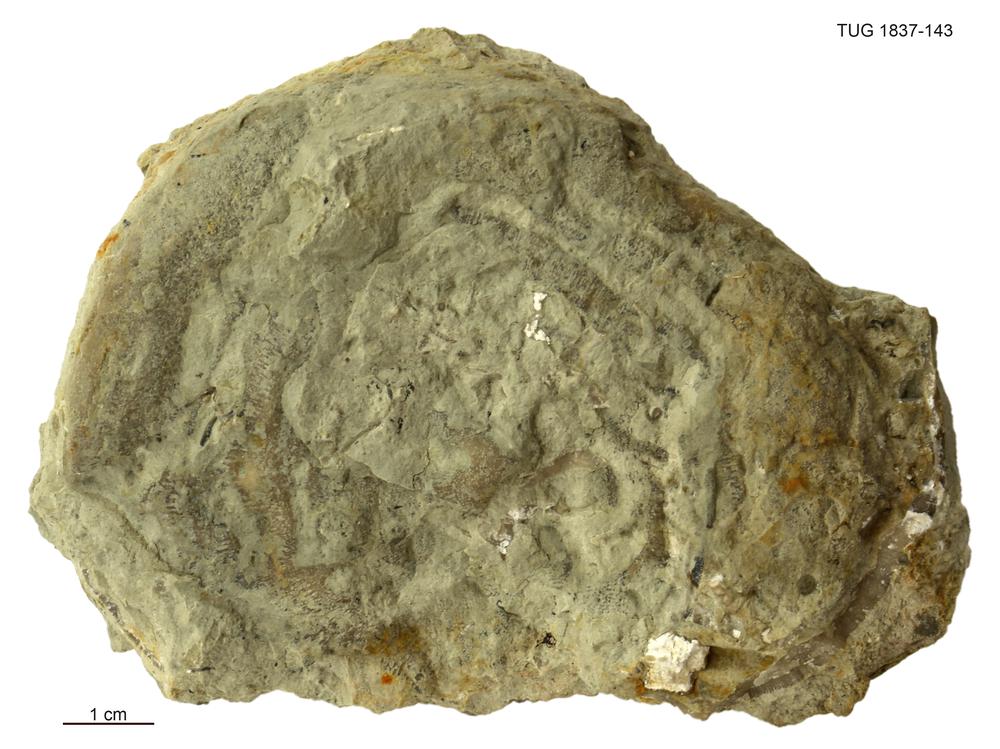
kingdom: Animalia
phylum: Bryozoa
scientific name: Bryozoa
